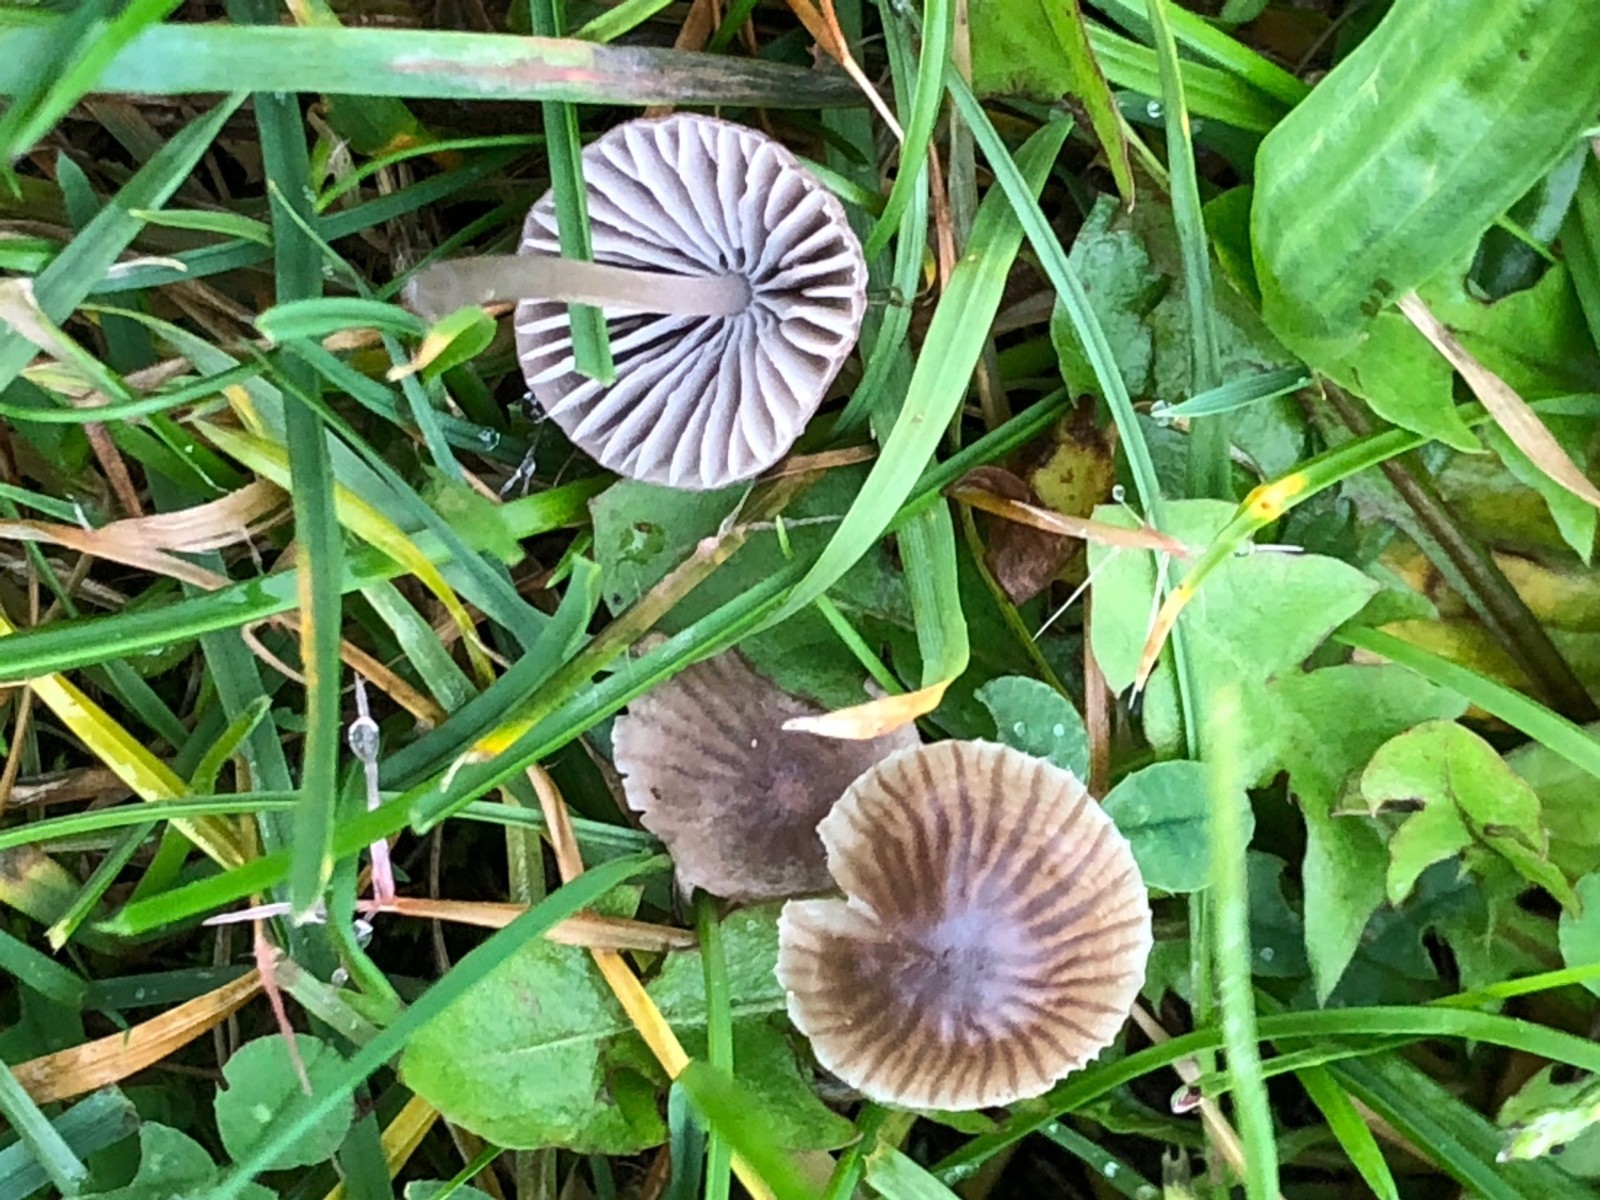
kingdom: Fungi
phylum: Basidiomycota
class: Agaricomycetes
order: Agaricales
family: Mycenaceae
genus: Mycena
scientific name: Mycena
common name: huesvamp
